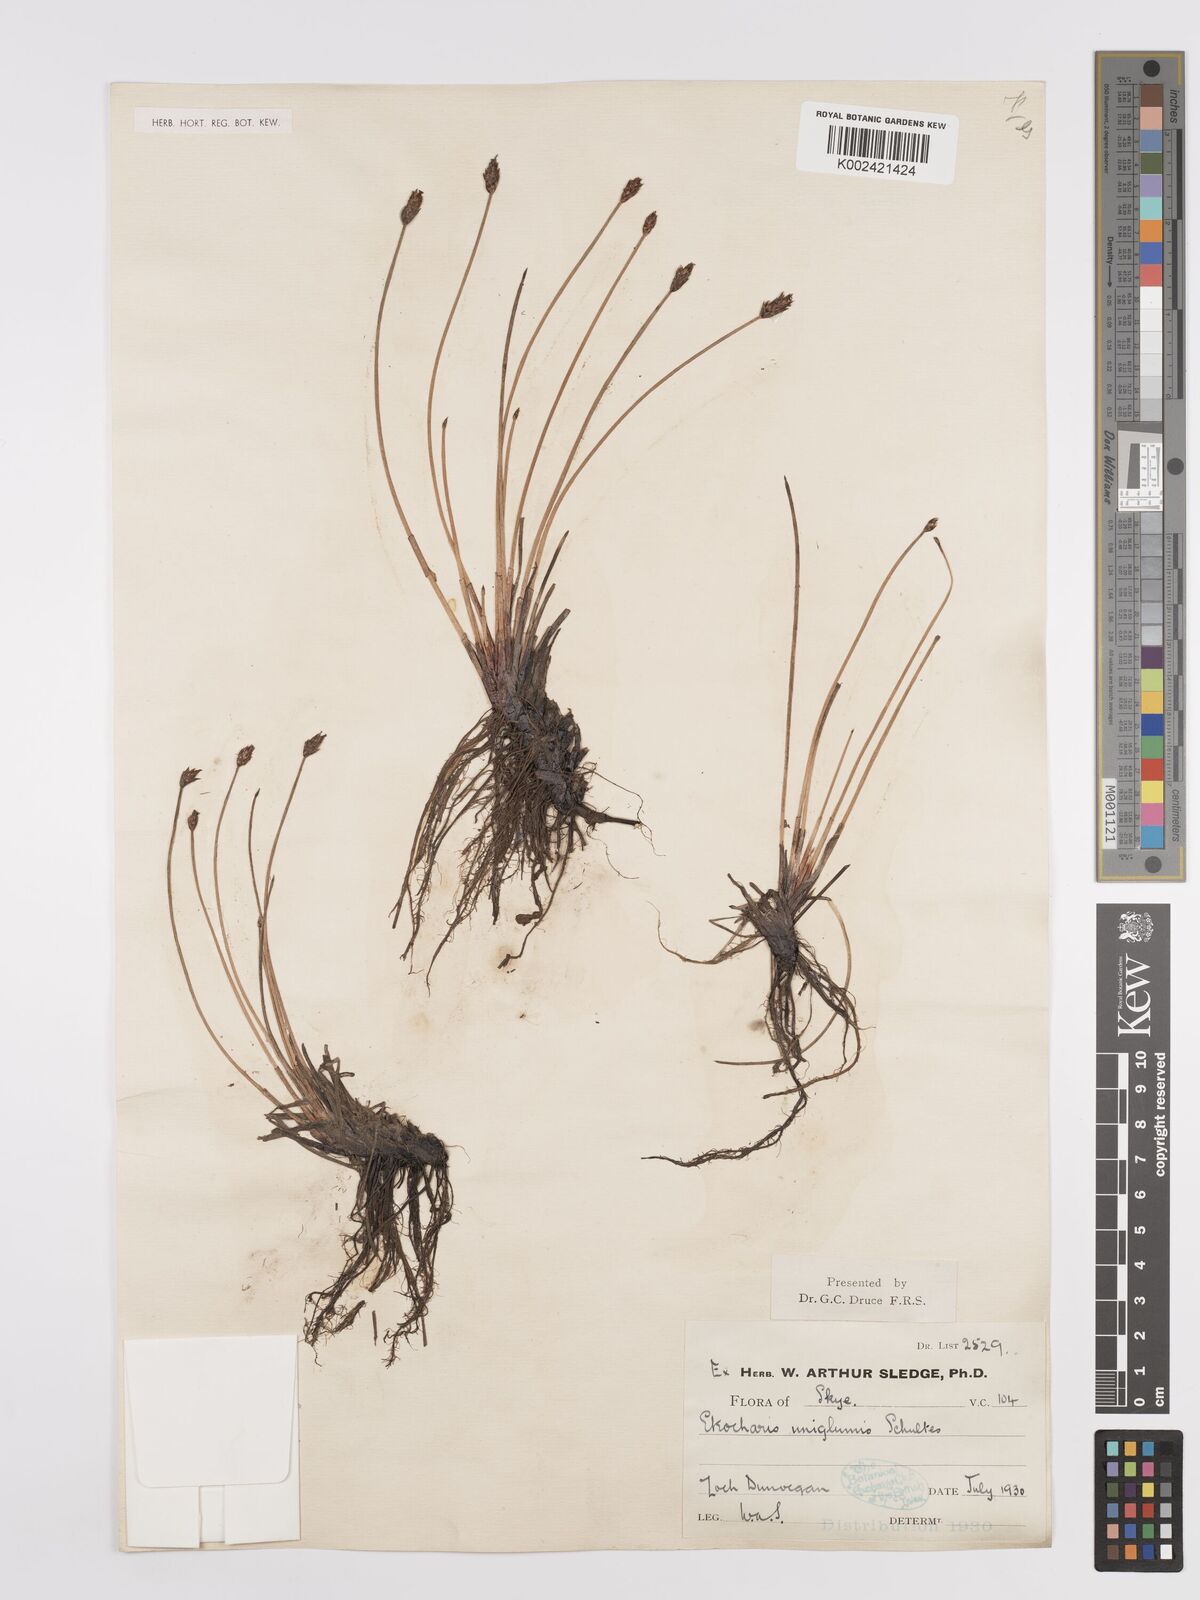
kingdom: Plantae
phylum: Tracheophyta
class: Liliopsida
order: Poales
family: Cyperaceae
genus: Eleocharis
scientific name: Eleocharis uniglumis
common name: Slender spike-rush
